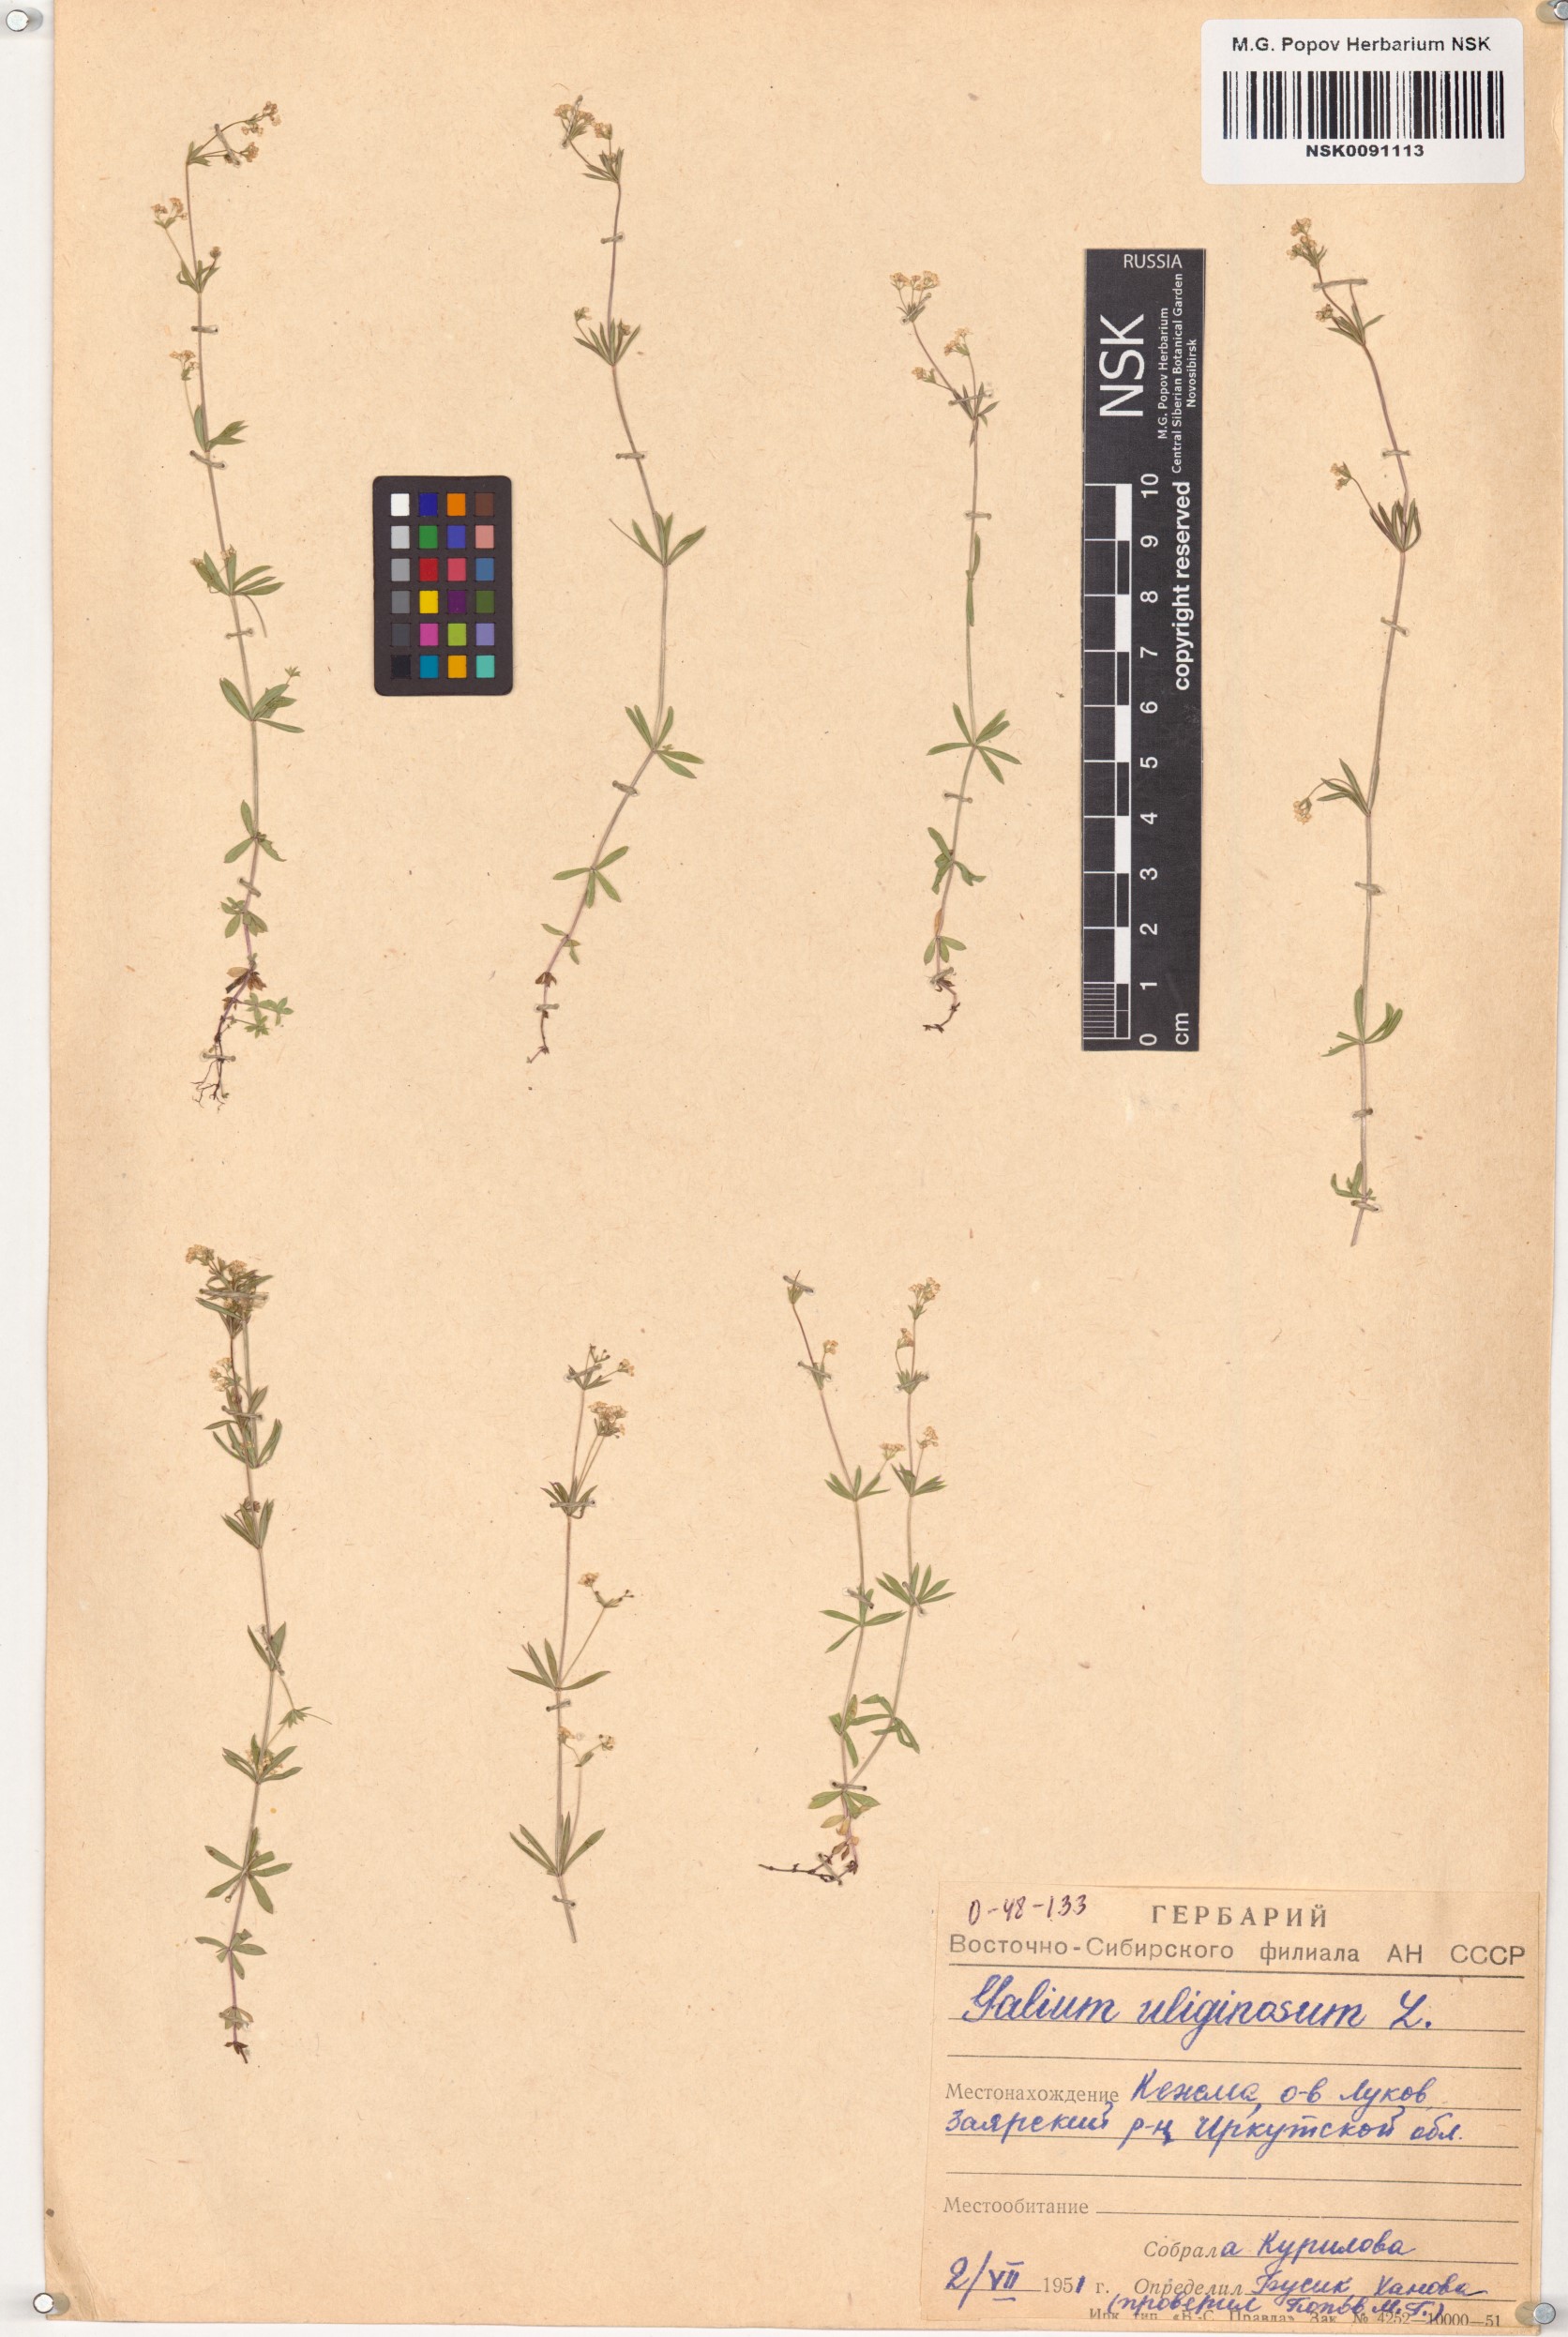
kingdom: Plantae
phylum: Tracheophyta
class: Magnoliopsida
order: Gentianales
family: Rubiaceae
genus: Galium
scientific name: Galium uliginosum
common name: Fen bedstraw
